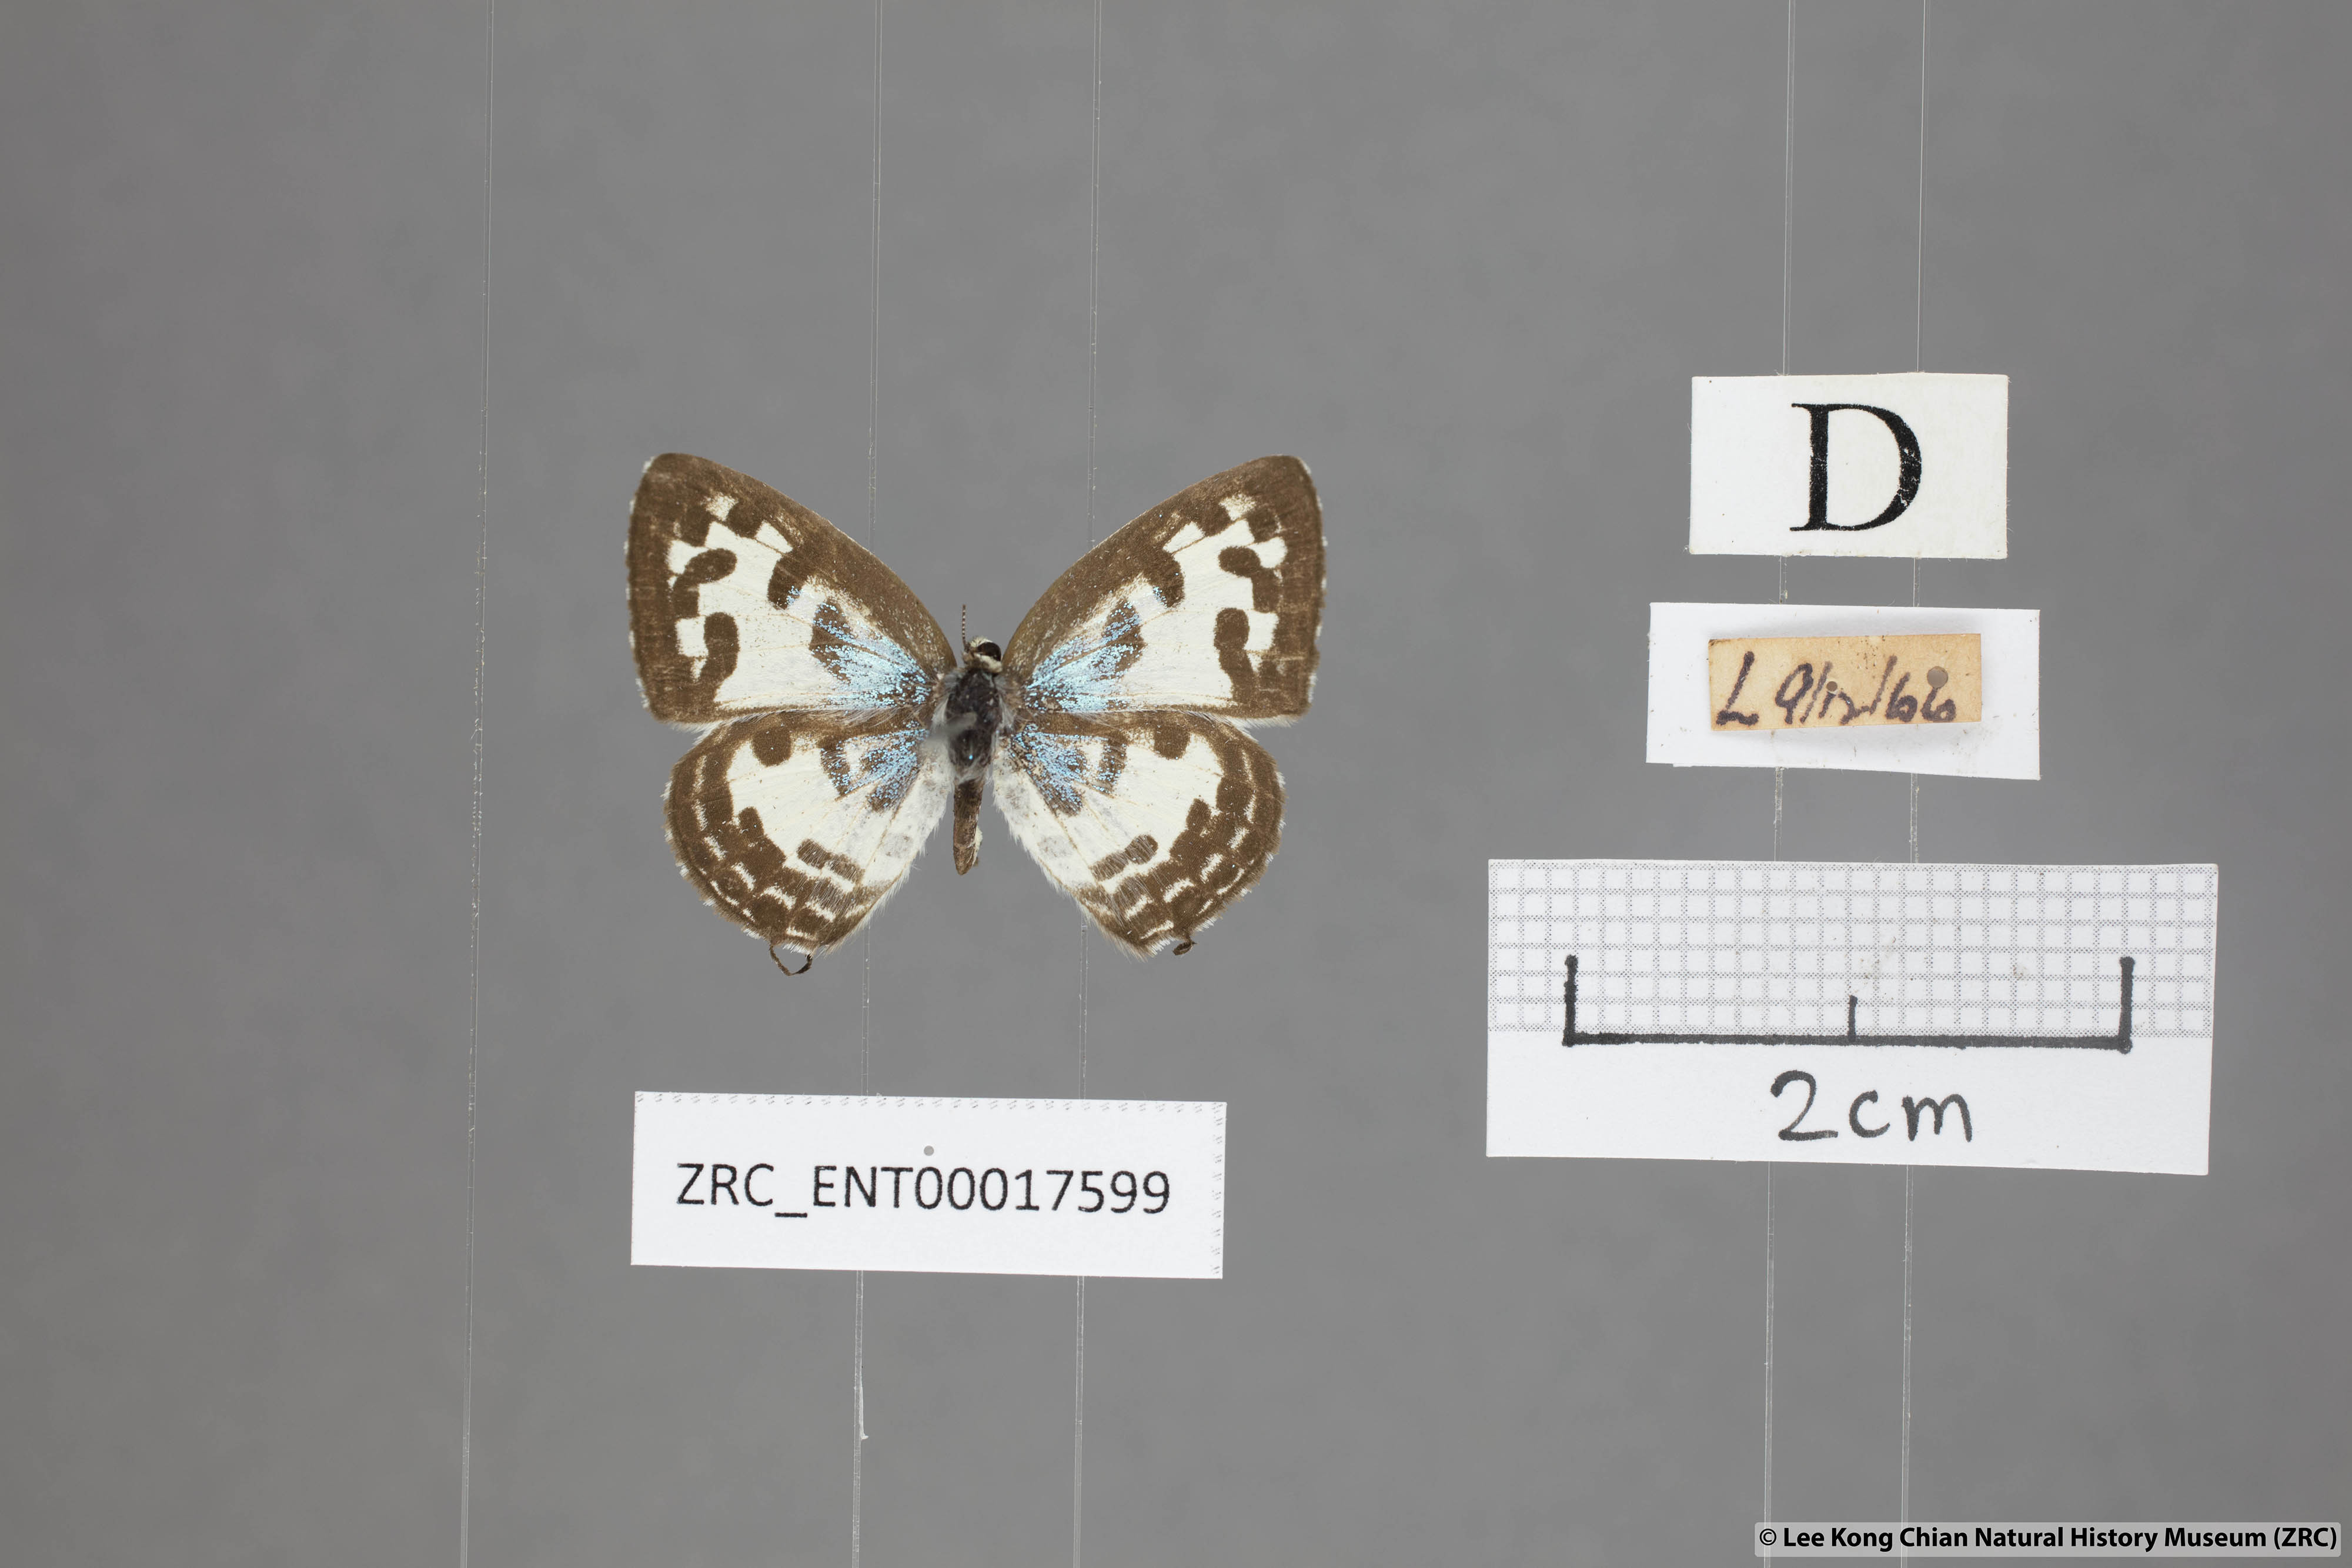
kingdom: Animalia
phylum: Arthropoda
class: Insecta
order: Lepidoptera
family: Lycaenidae
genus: Castalius
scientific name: Castalius rosimon
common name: Common pierrot
